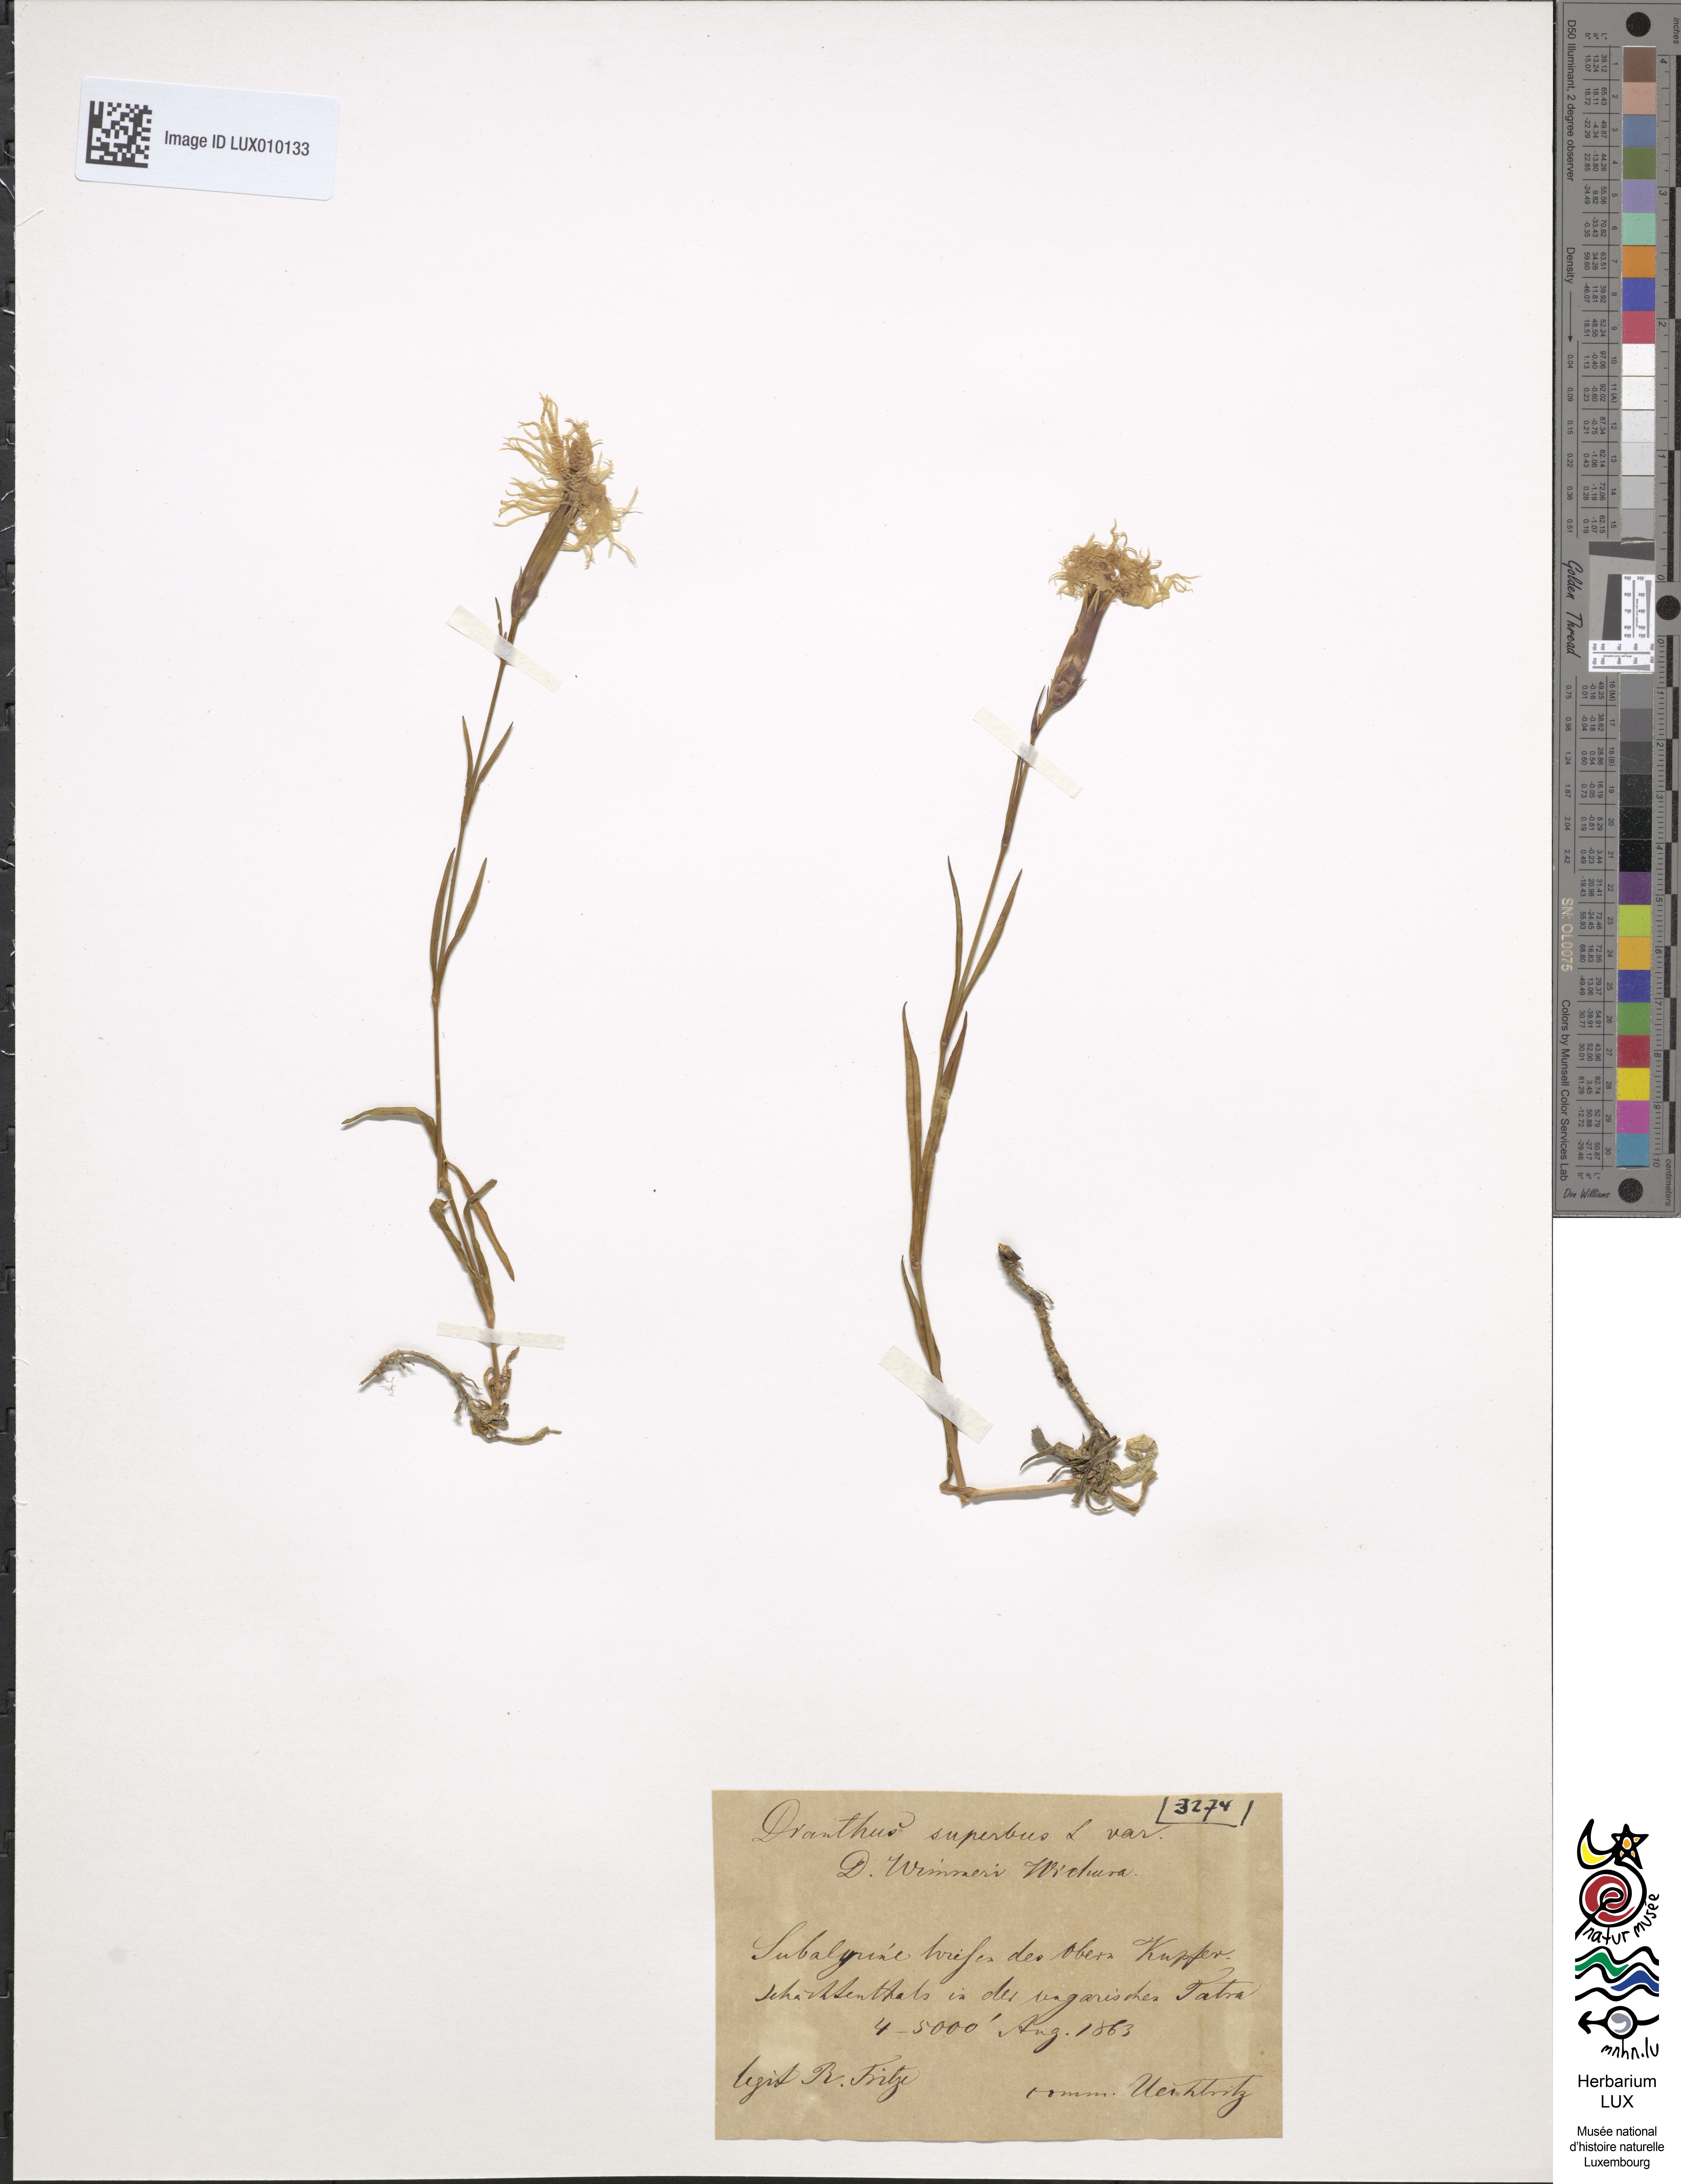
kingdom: Plantae
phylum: Tracheophyta
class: Magnoliopsida
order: Caryophyllales
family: Caryophyllaceae
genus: Dianthus
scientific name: Dianthus superbus
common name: Fringed pink
